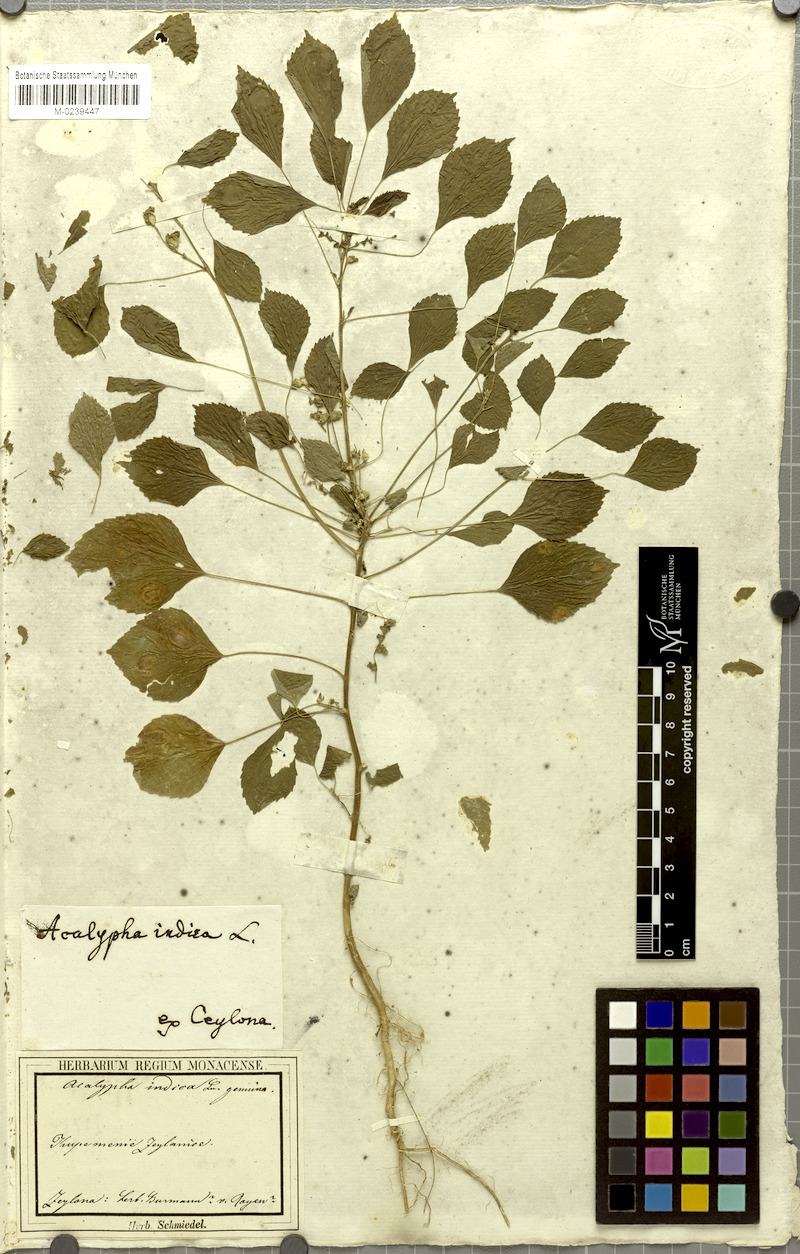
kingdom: Plantae
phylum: Tracheophyta
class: Magnoliopsida
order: Malpighiales
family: Euphorbiaceae
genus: Acalypha
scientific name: Acalypha indica
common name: Indian acalypha
